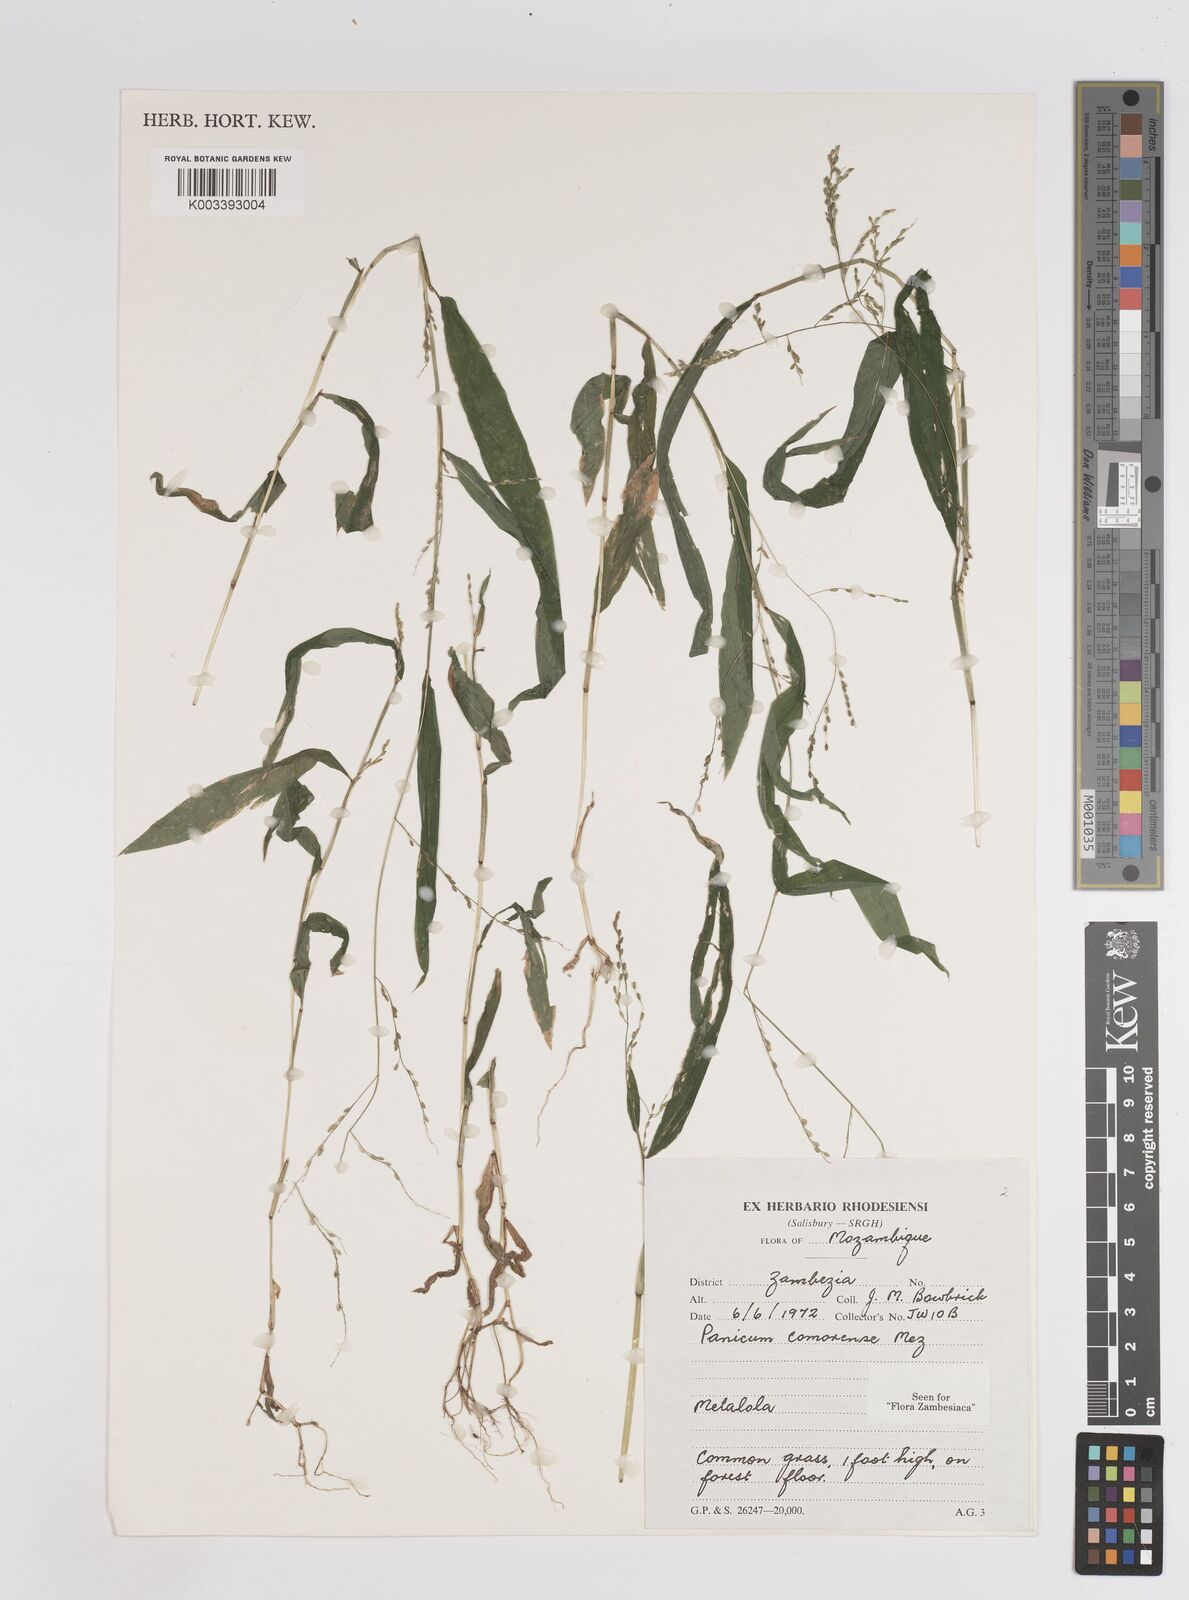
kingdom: Plantae
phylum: Tracheophyta
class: Liliopsida
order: Poales
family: Poaceae
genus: Panicum
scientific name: Panicum comorense
